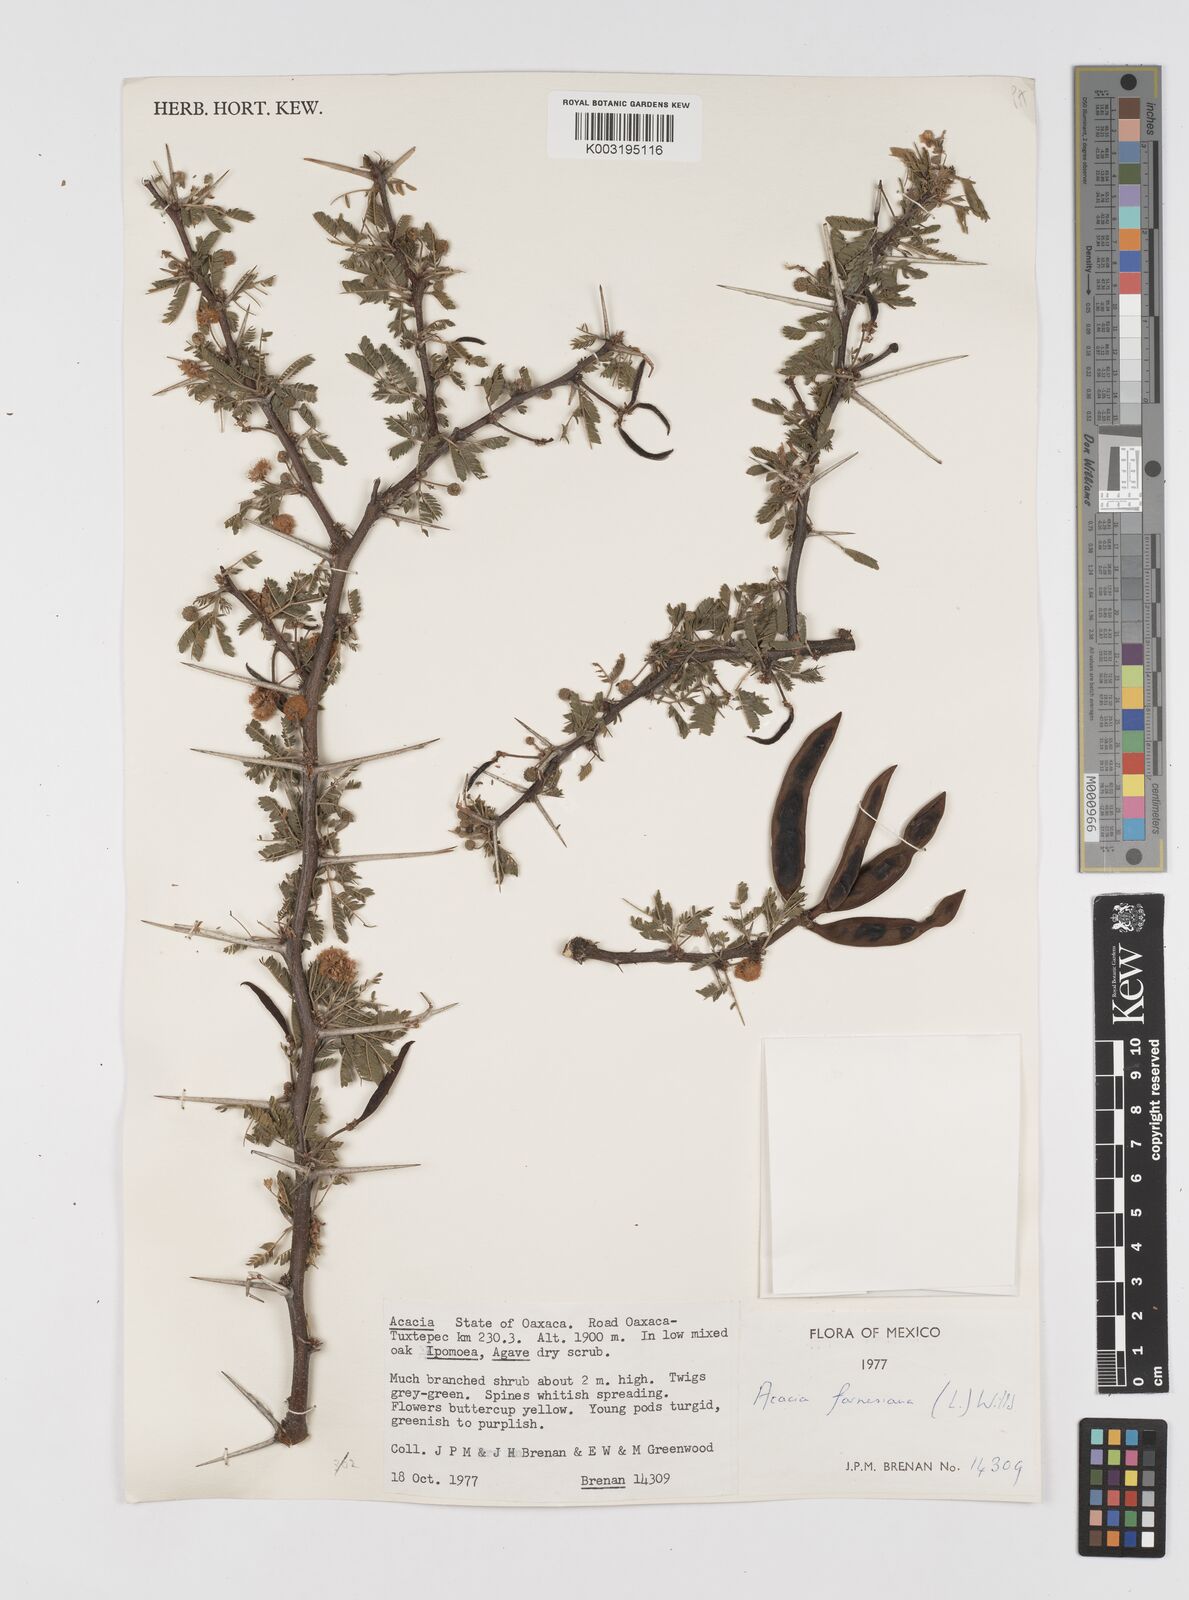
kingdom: Plantae
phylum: Tracheophyta
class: Magnoliopsida
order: Fabales
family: Fabaceae
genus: Vachellia
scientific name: Vachellia farnesiana
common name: Sweet acacia
